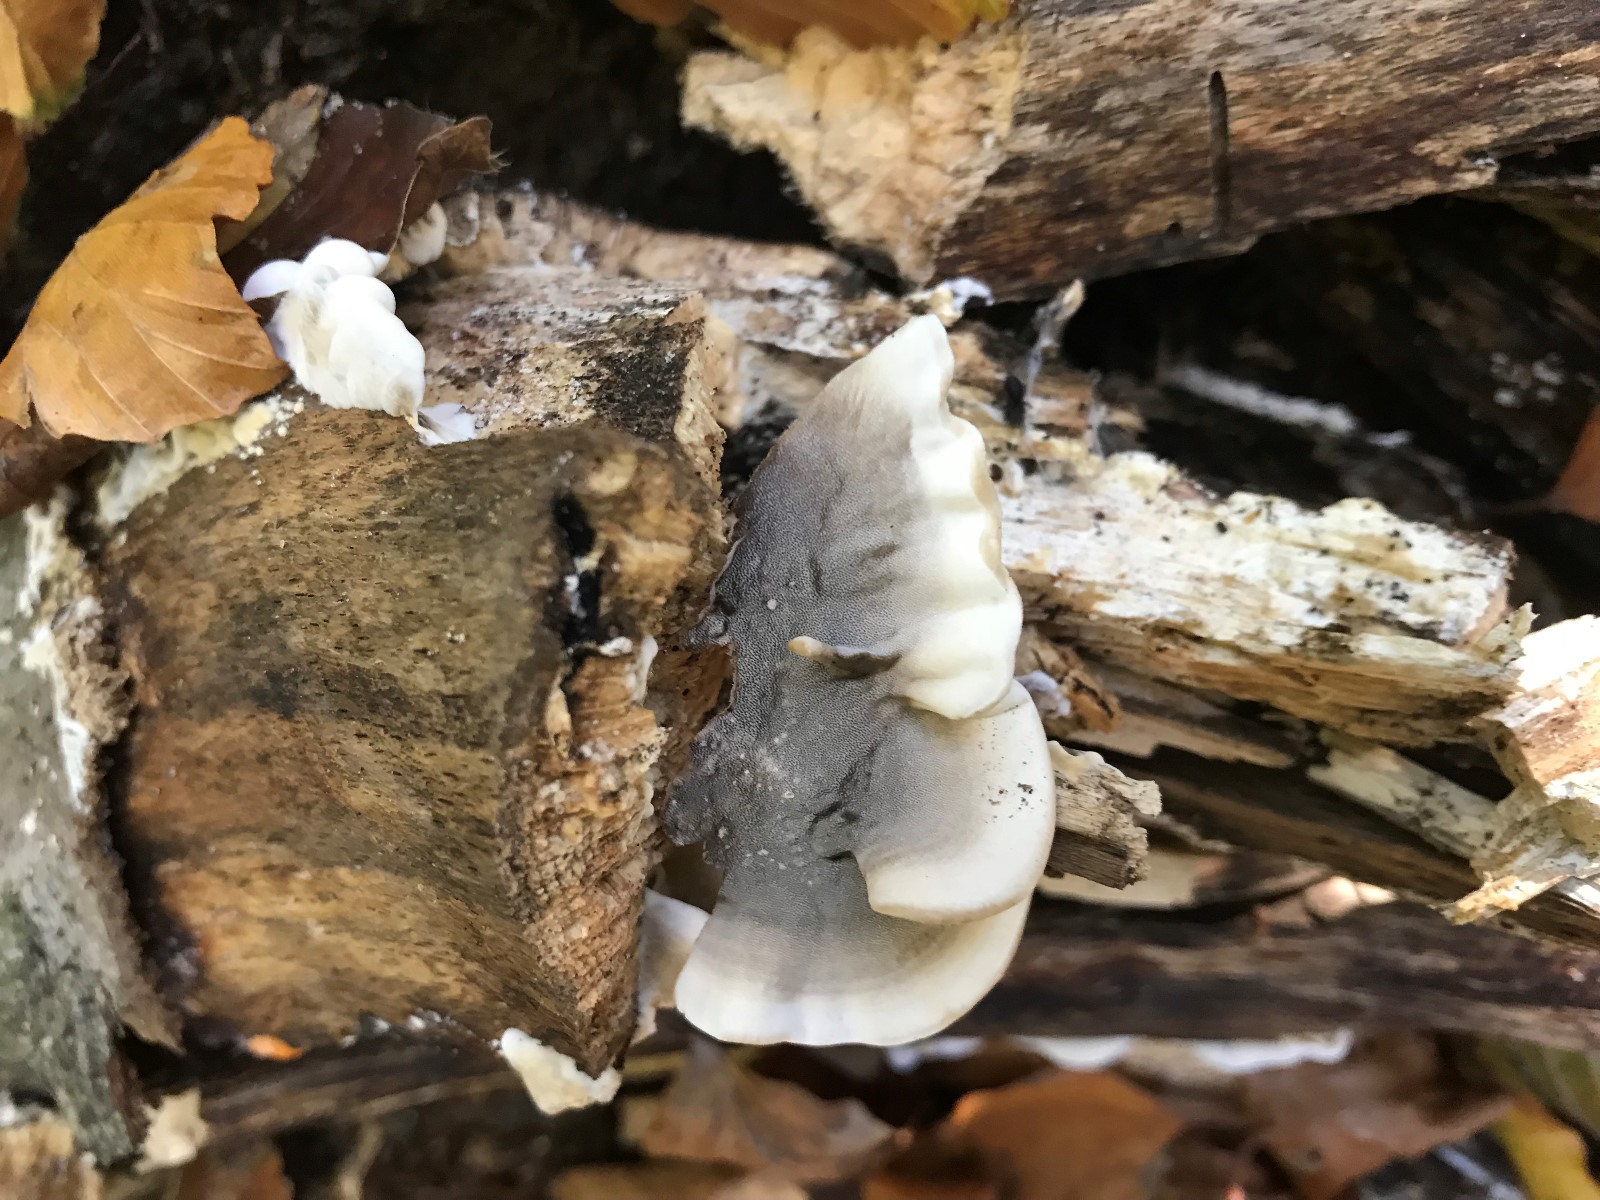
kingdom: Fungi
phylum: Basidiomycota
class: Agaricomycetes
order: Polyporales
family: Phanerochaetaceae
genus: Bjerkandera
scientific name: Bjerkandera adusta
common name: sveden sodporesvamp
